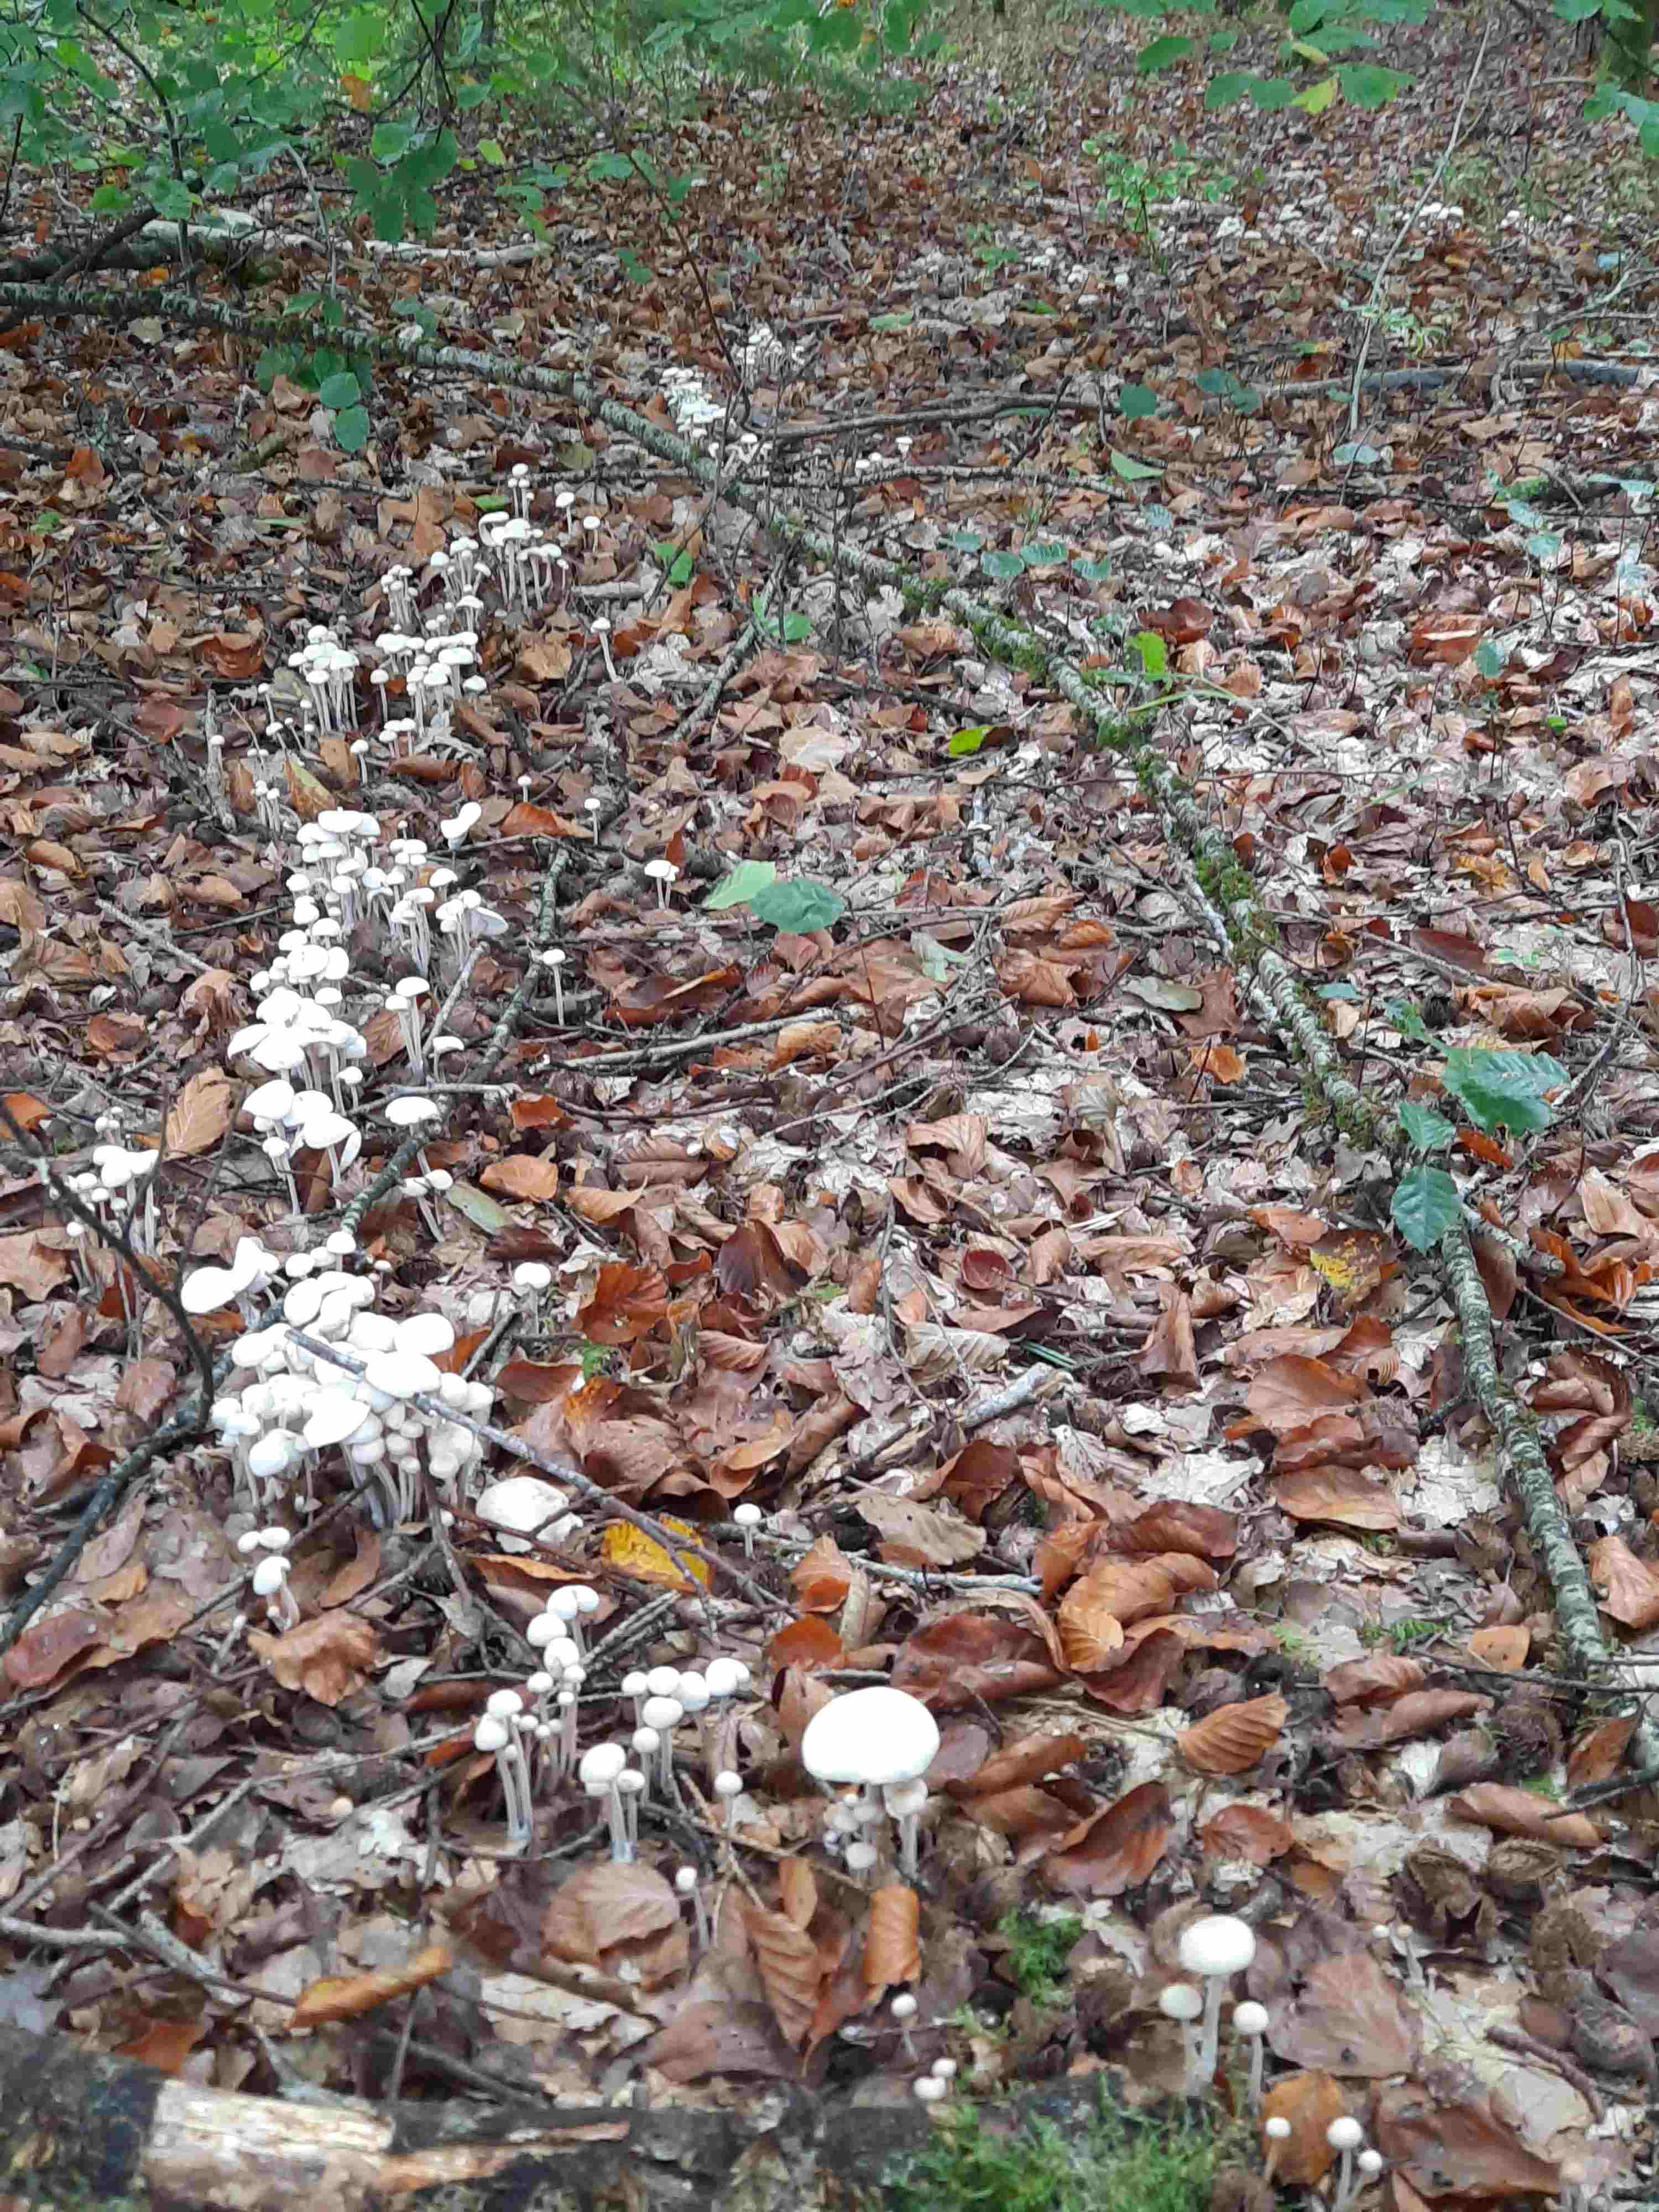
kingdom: Fungi
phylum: Basidiomycota
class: Agaricomycetes
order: Agaricales
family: Omphalotaceae
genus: Collybiopsis
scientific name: Collybiopsis confluens
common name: knippe-fladhat
